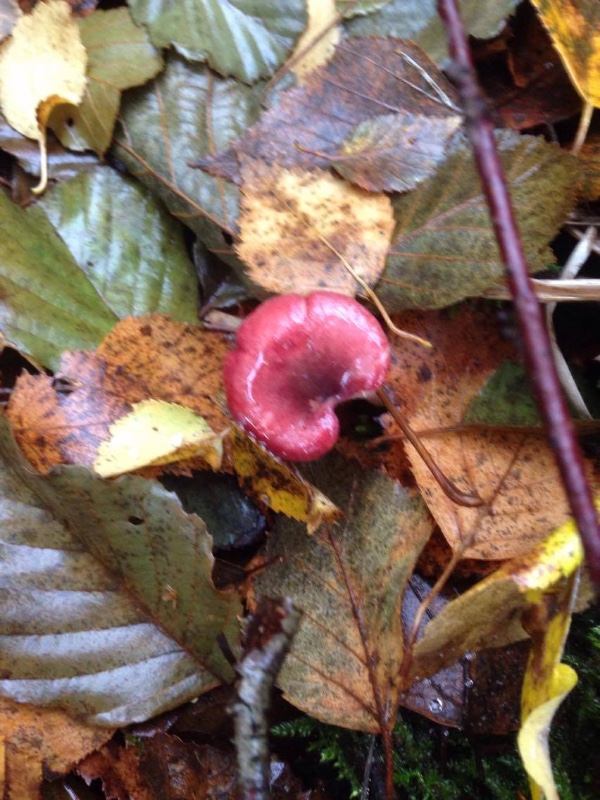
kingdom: Fungi
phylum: Basidiomycota
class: Agaricomycetes
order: Russulales
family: Russulaceae
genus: Russula
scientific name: Russula
